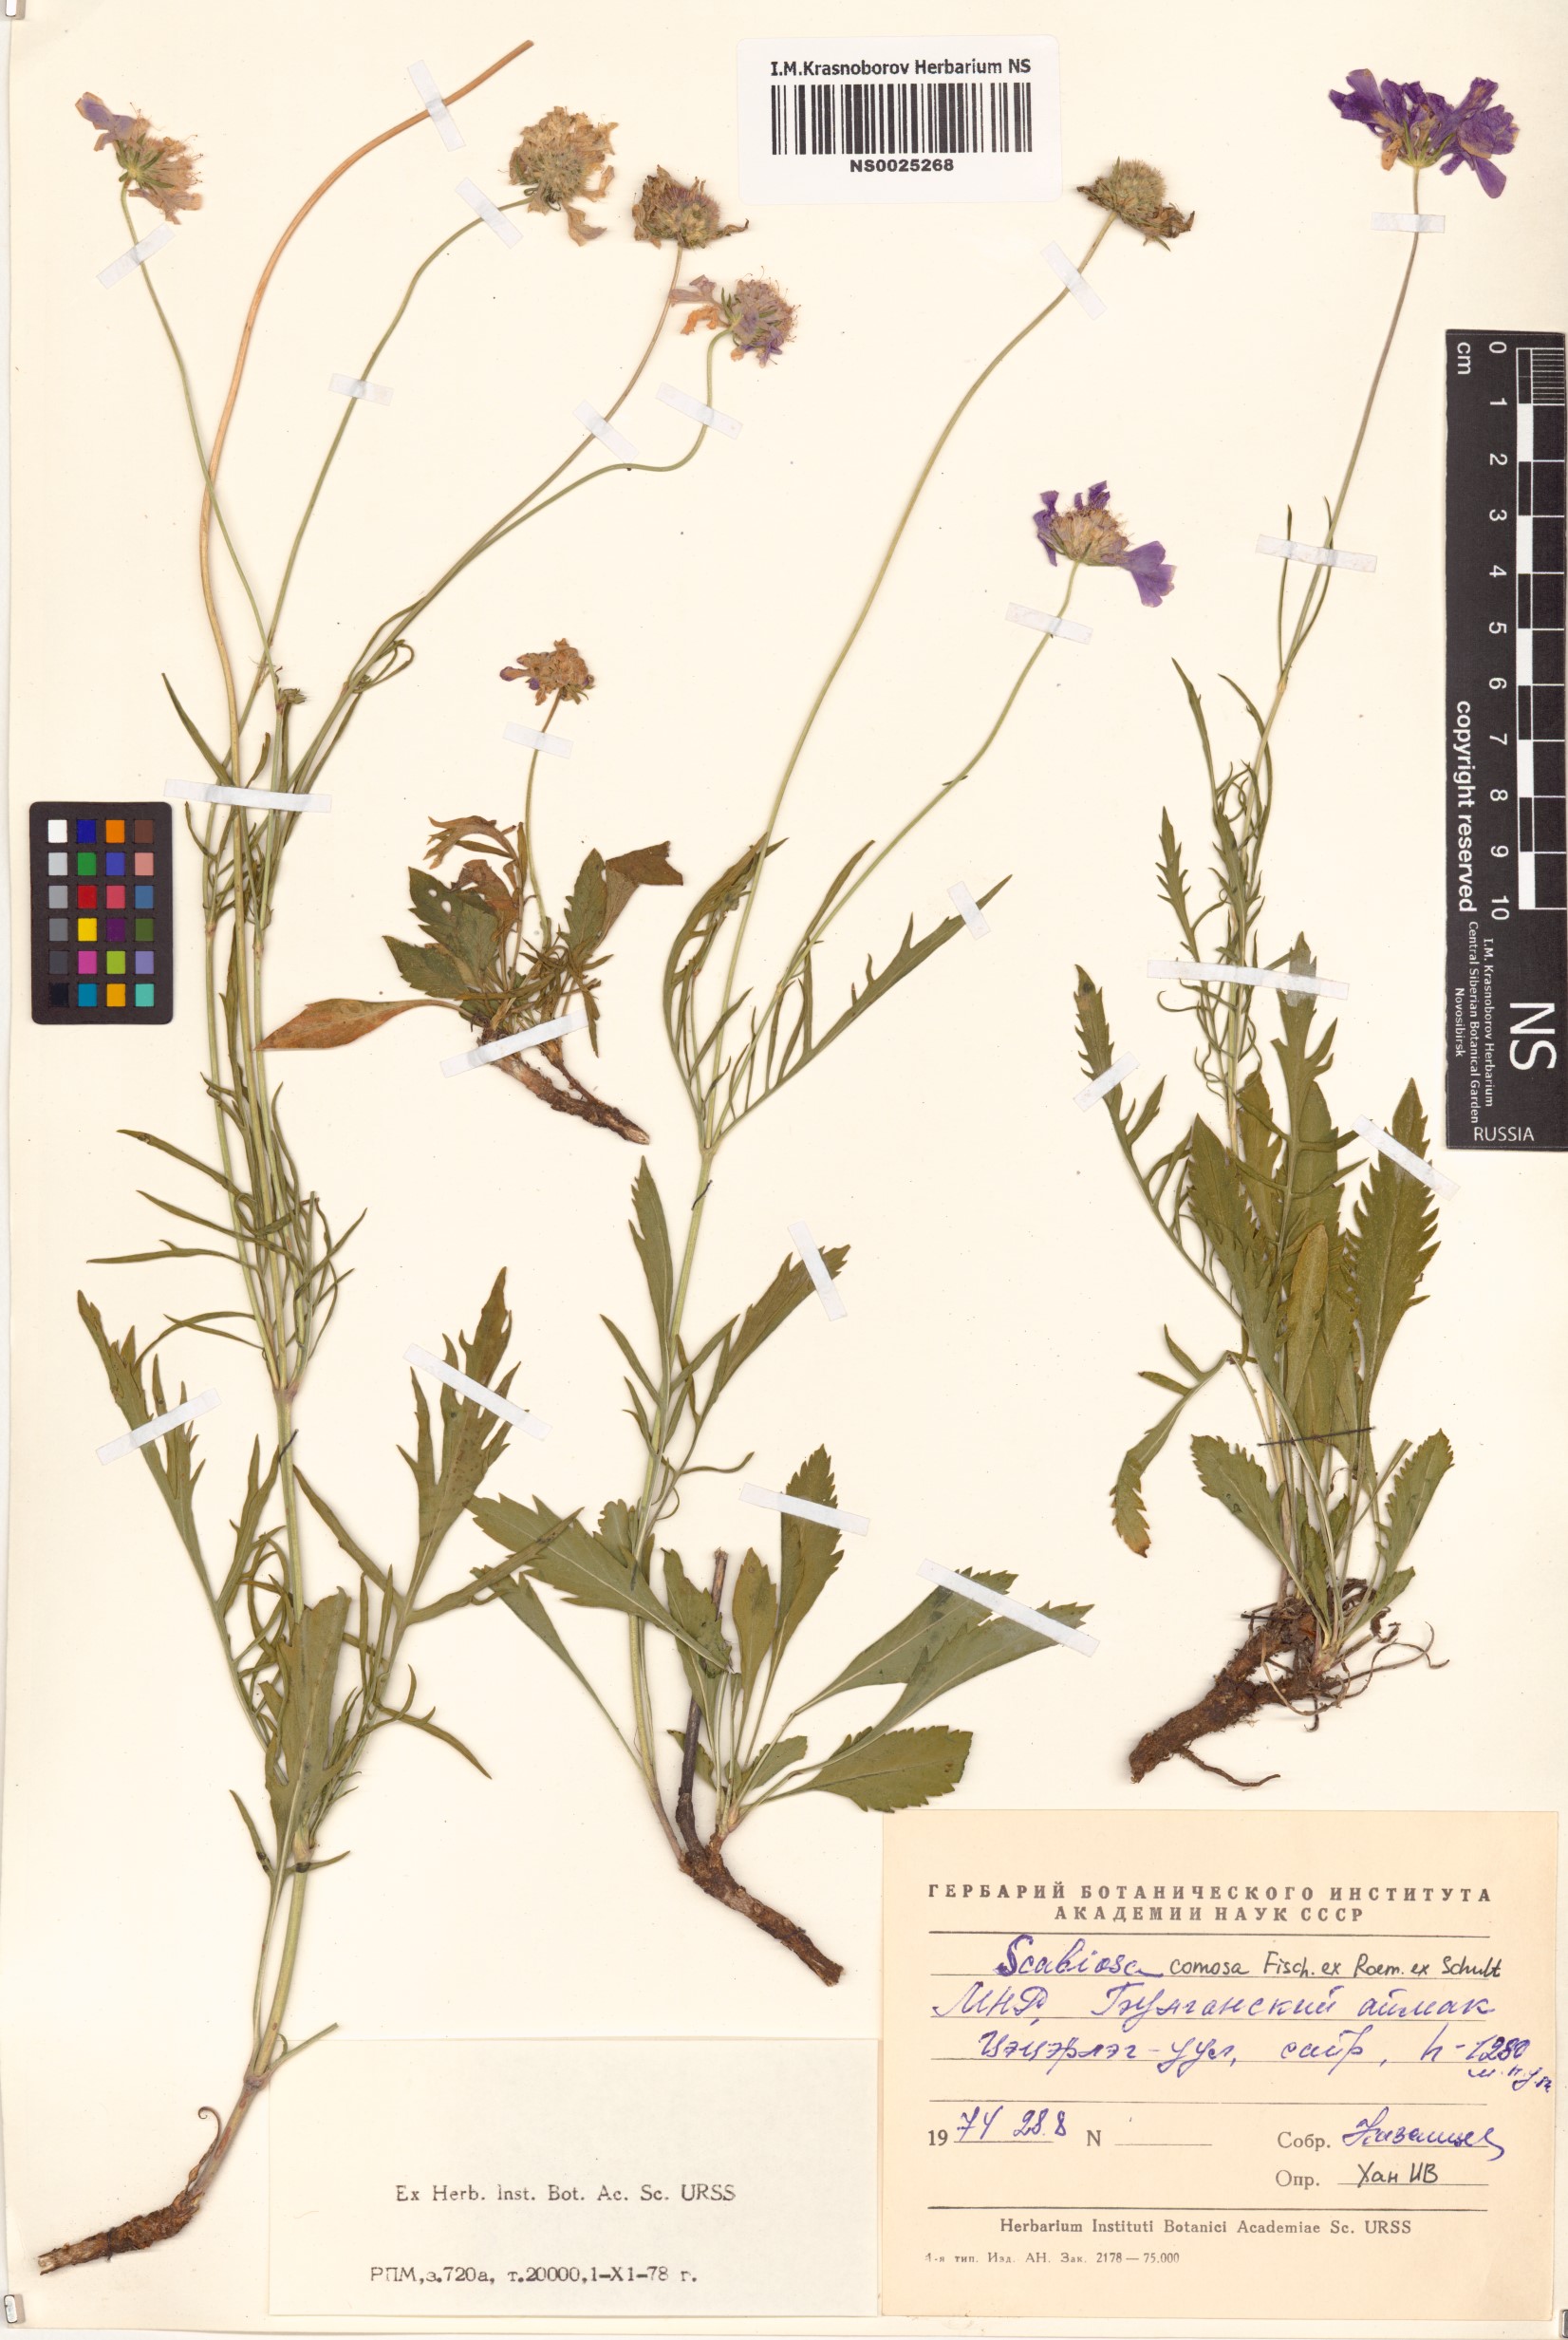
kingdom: Plantae
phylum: Tracheophyta
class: Magnoliopsida
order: Dipsacales
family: Caprifoliaceae
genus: Scabiosa
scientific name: Scabiosa comosa
